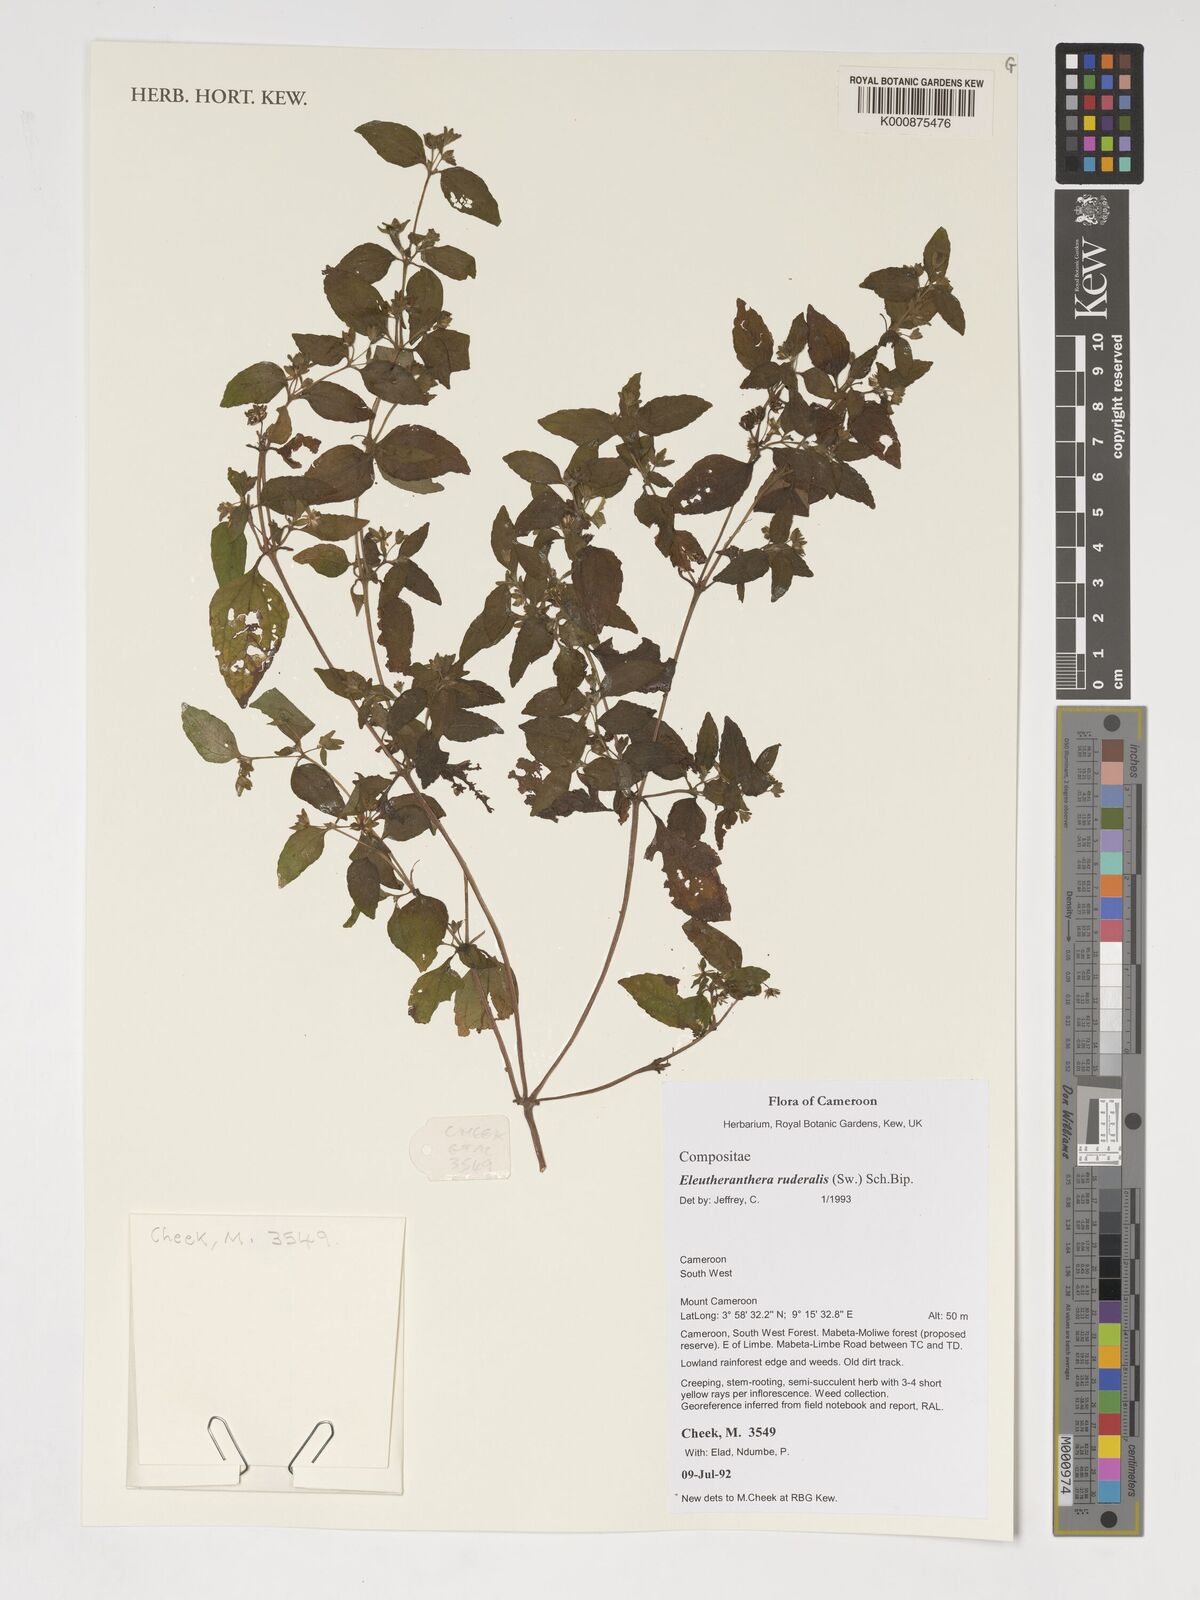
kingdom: Plantae
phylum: Tracheophyta
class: Magnoliopsida
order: Asterales
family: Asteraceae
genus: Eleutheranthera
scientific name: Eleutheranthera ruderalis
